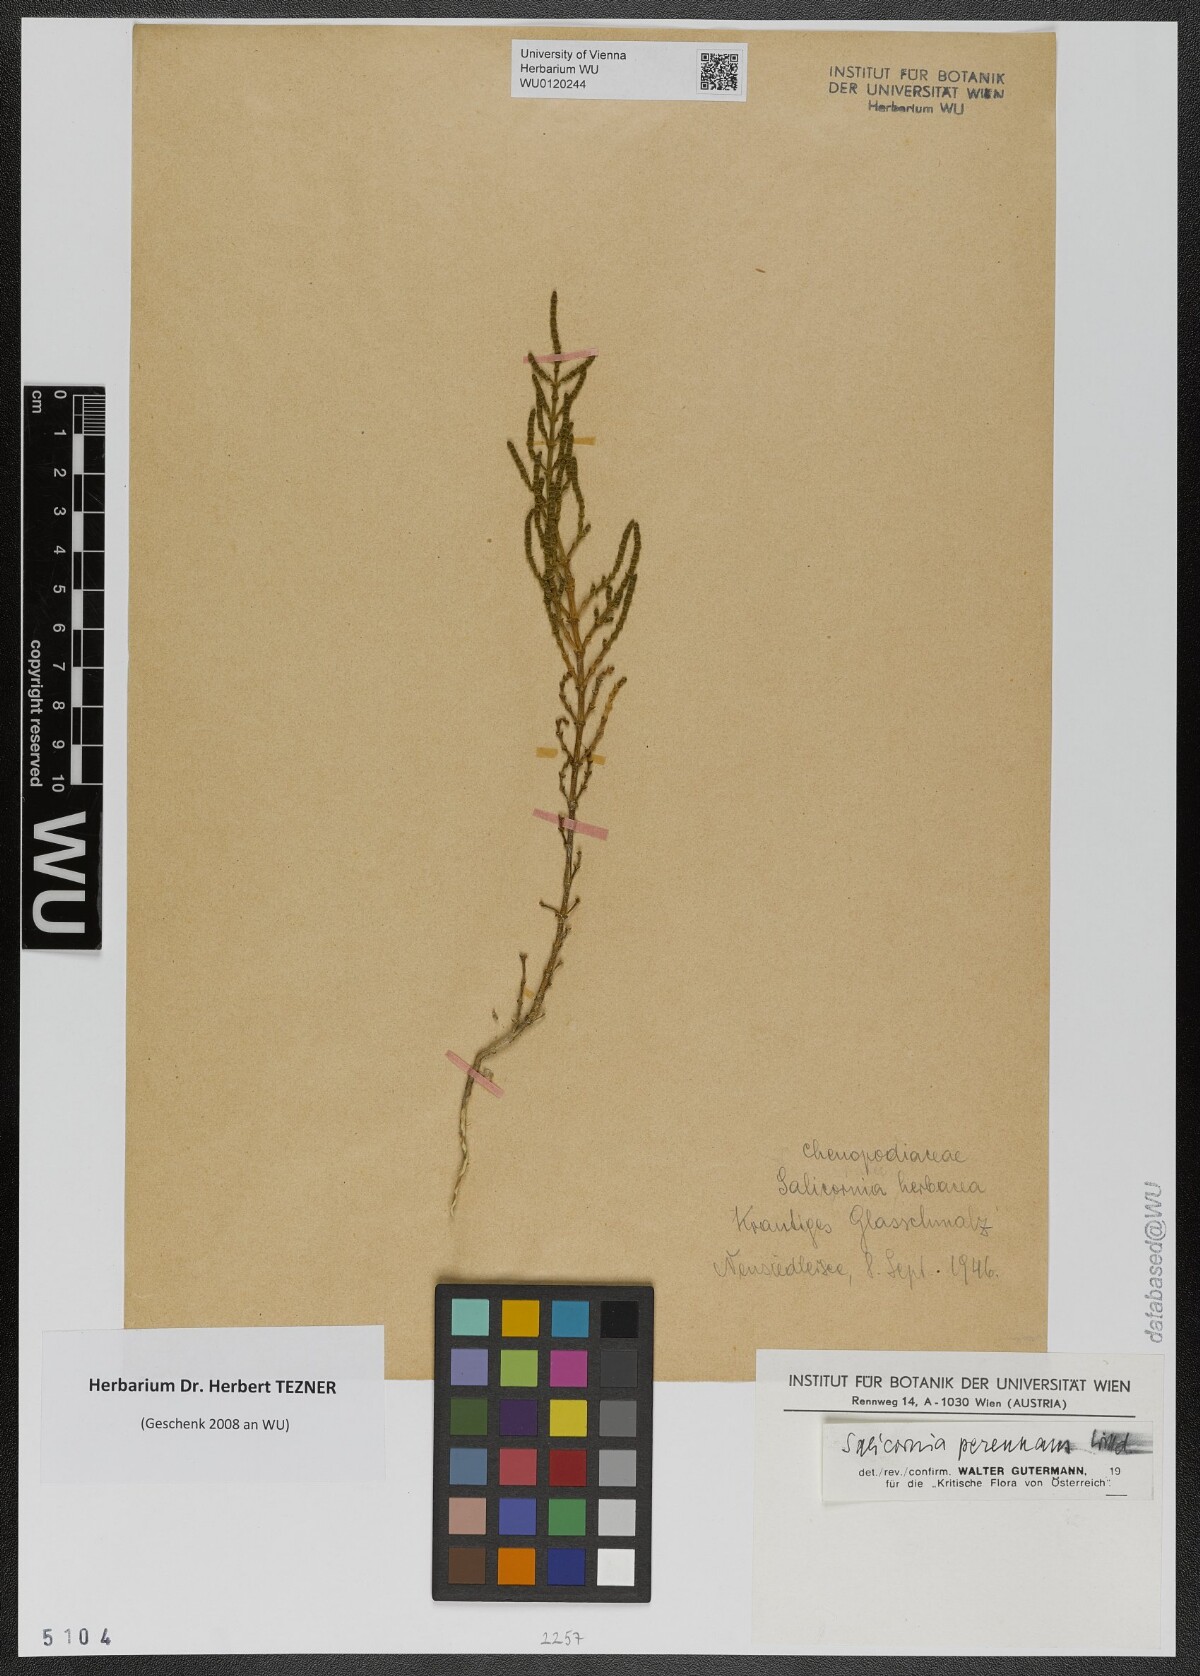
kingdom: Plantae
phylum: Tracheophyta
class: Magnoliopsida
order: Caryophyllales
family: Amaranthaceae
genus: Salicornia
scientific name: Salicornia perennans
